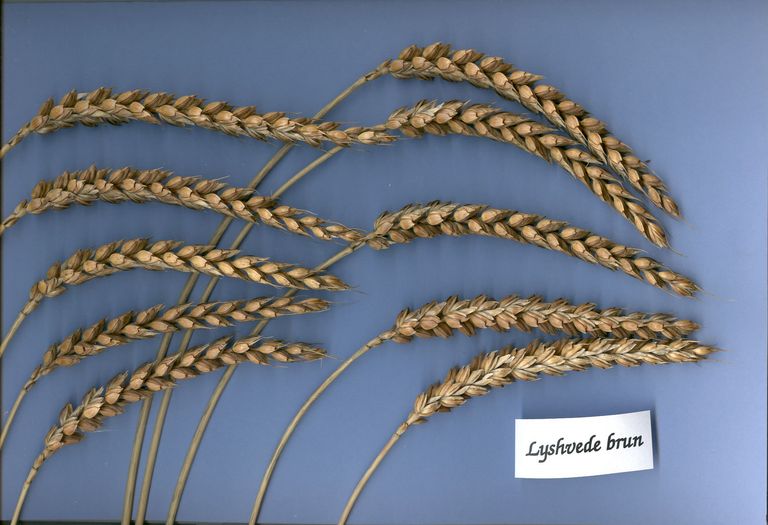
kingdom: Plantae
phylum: Tracheophyta
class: Liliopsida
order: Poales
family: Poaceae
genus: Triticum
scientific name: Triticum aestivum
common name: Common wheat
